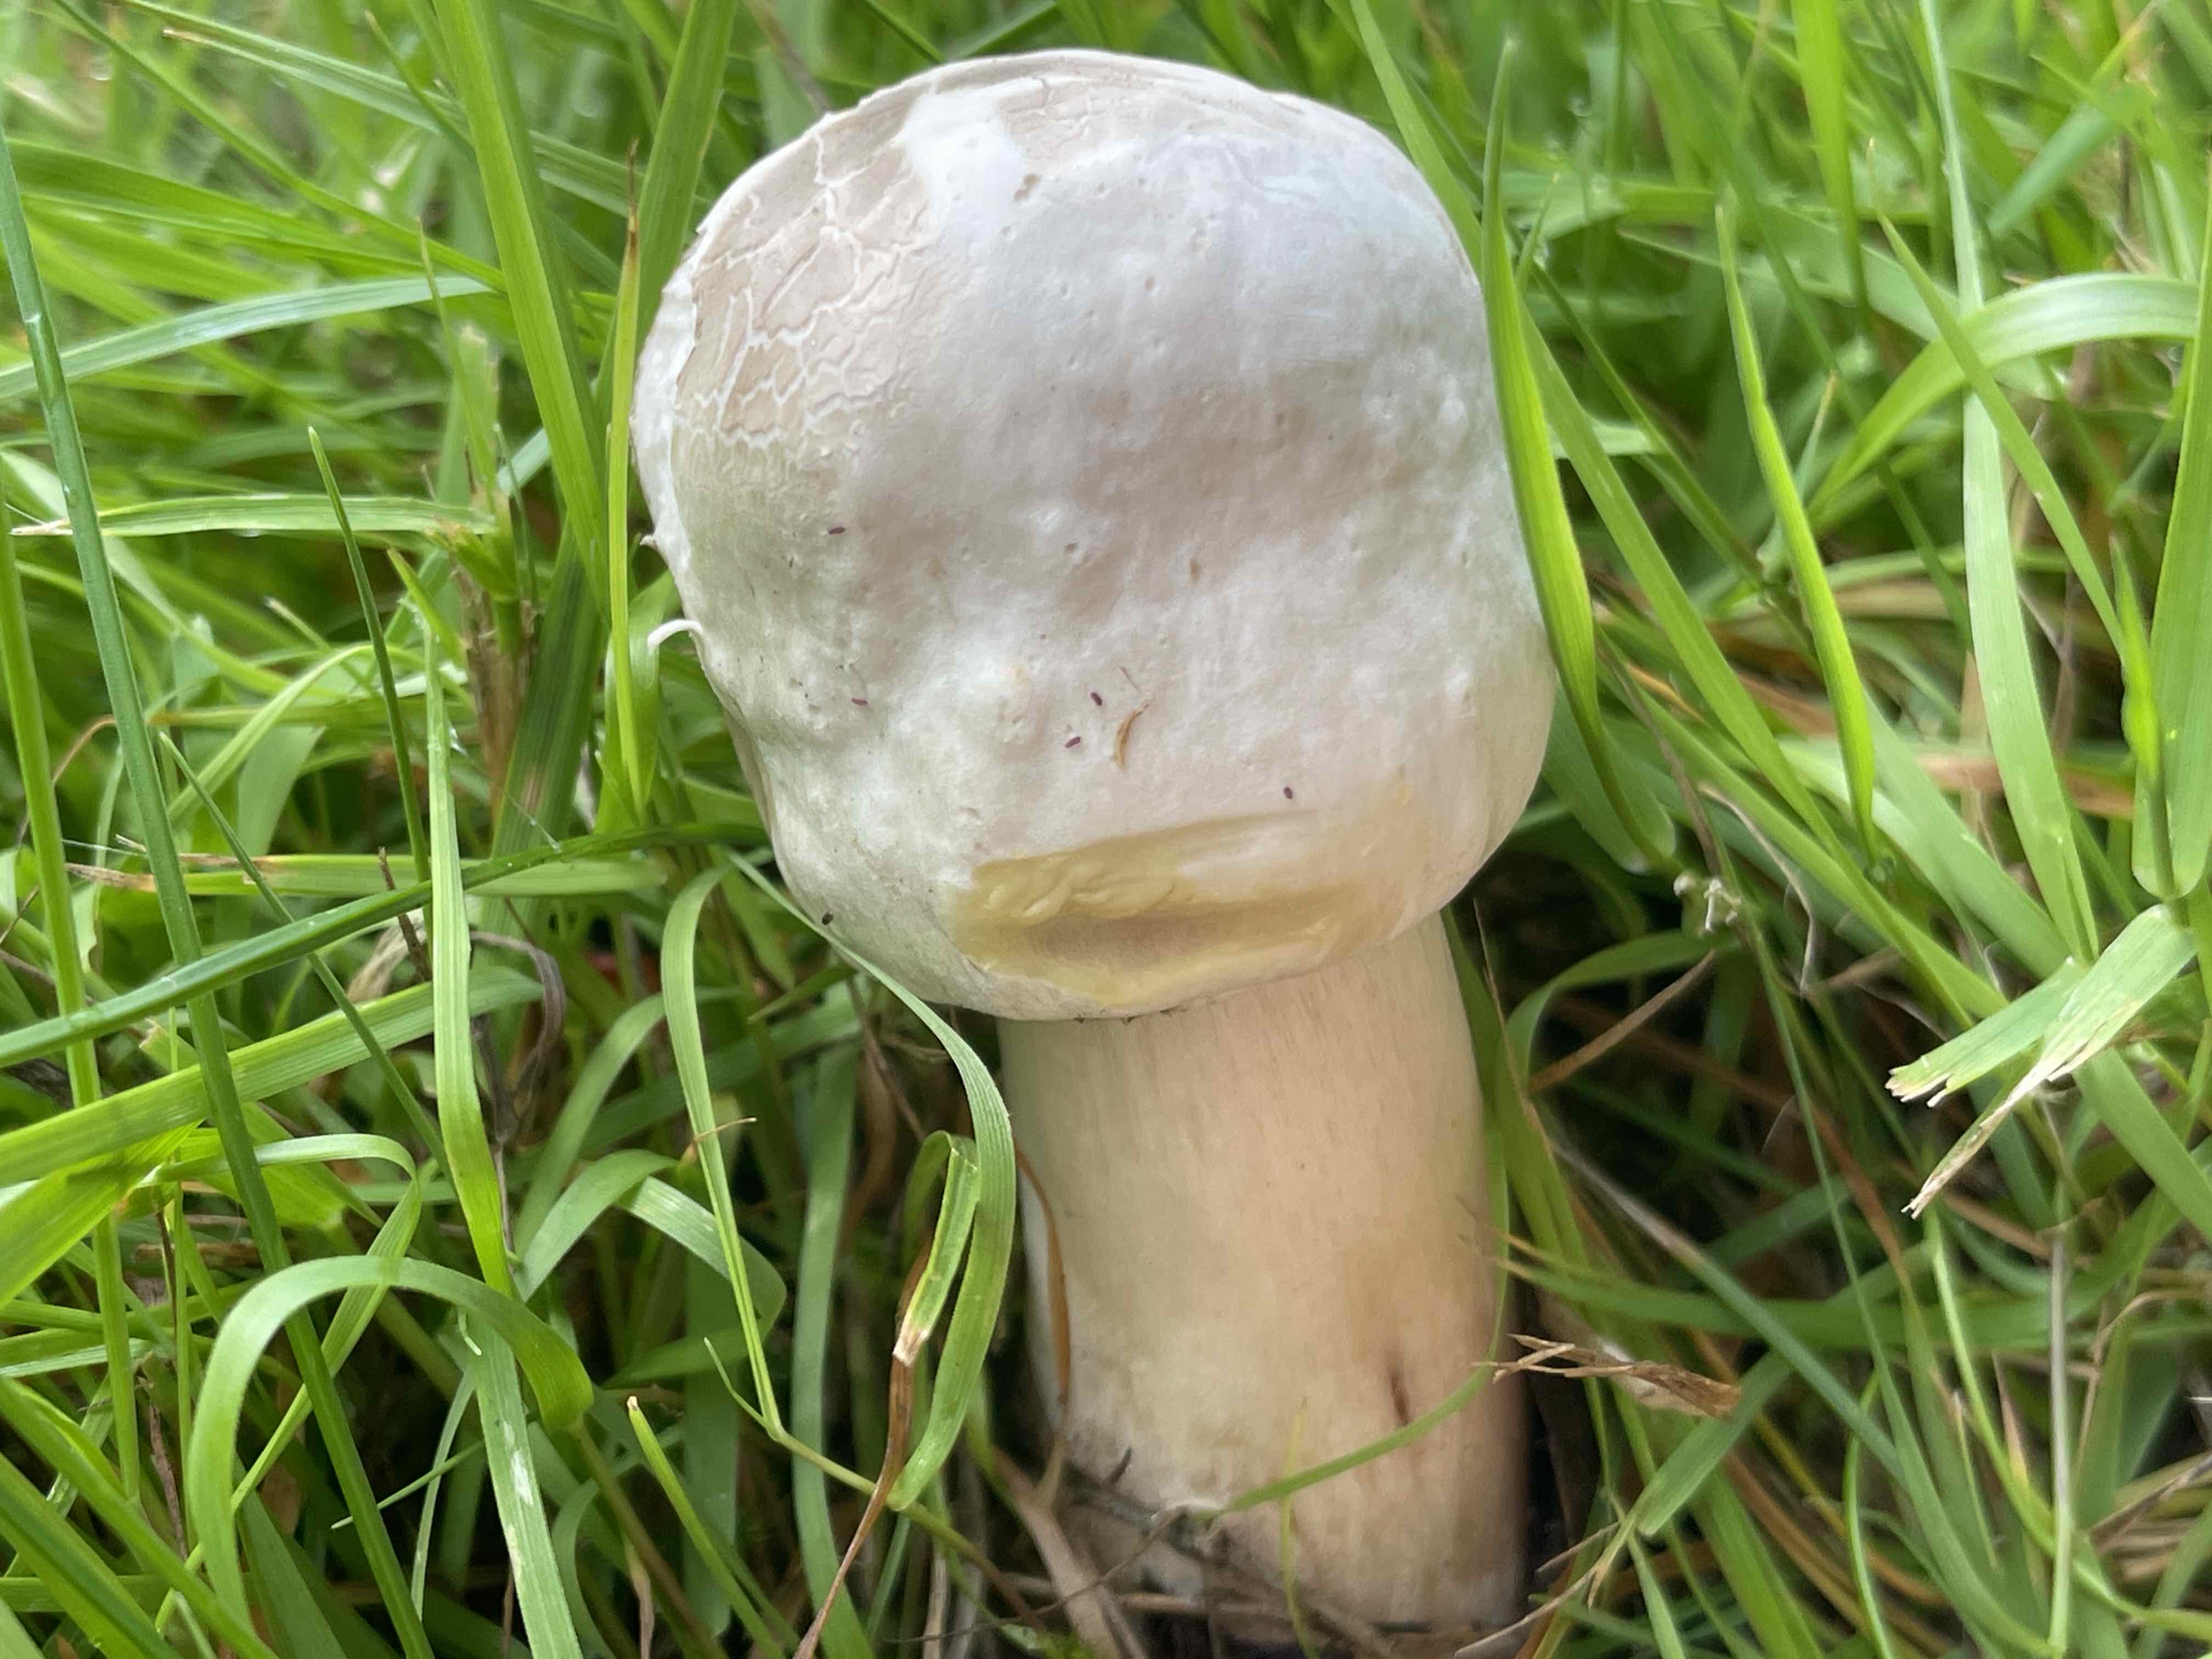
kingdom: Fungi
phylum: Basidiomycota
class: Agaricomycetes
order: Agaricales
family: Agaricaceae
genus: Agaricus
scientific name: Agaricus xanthodermus
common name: karbol-champignon
